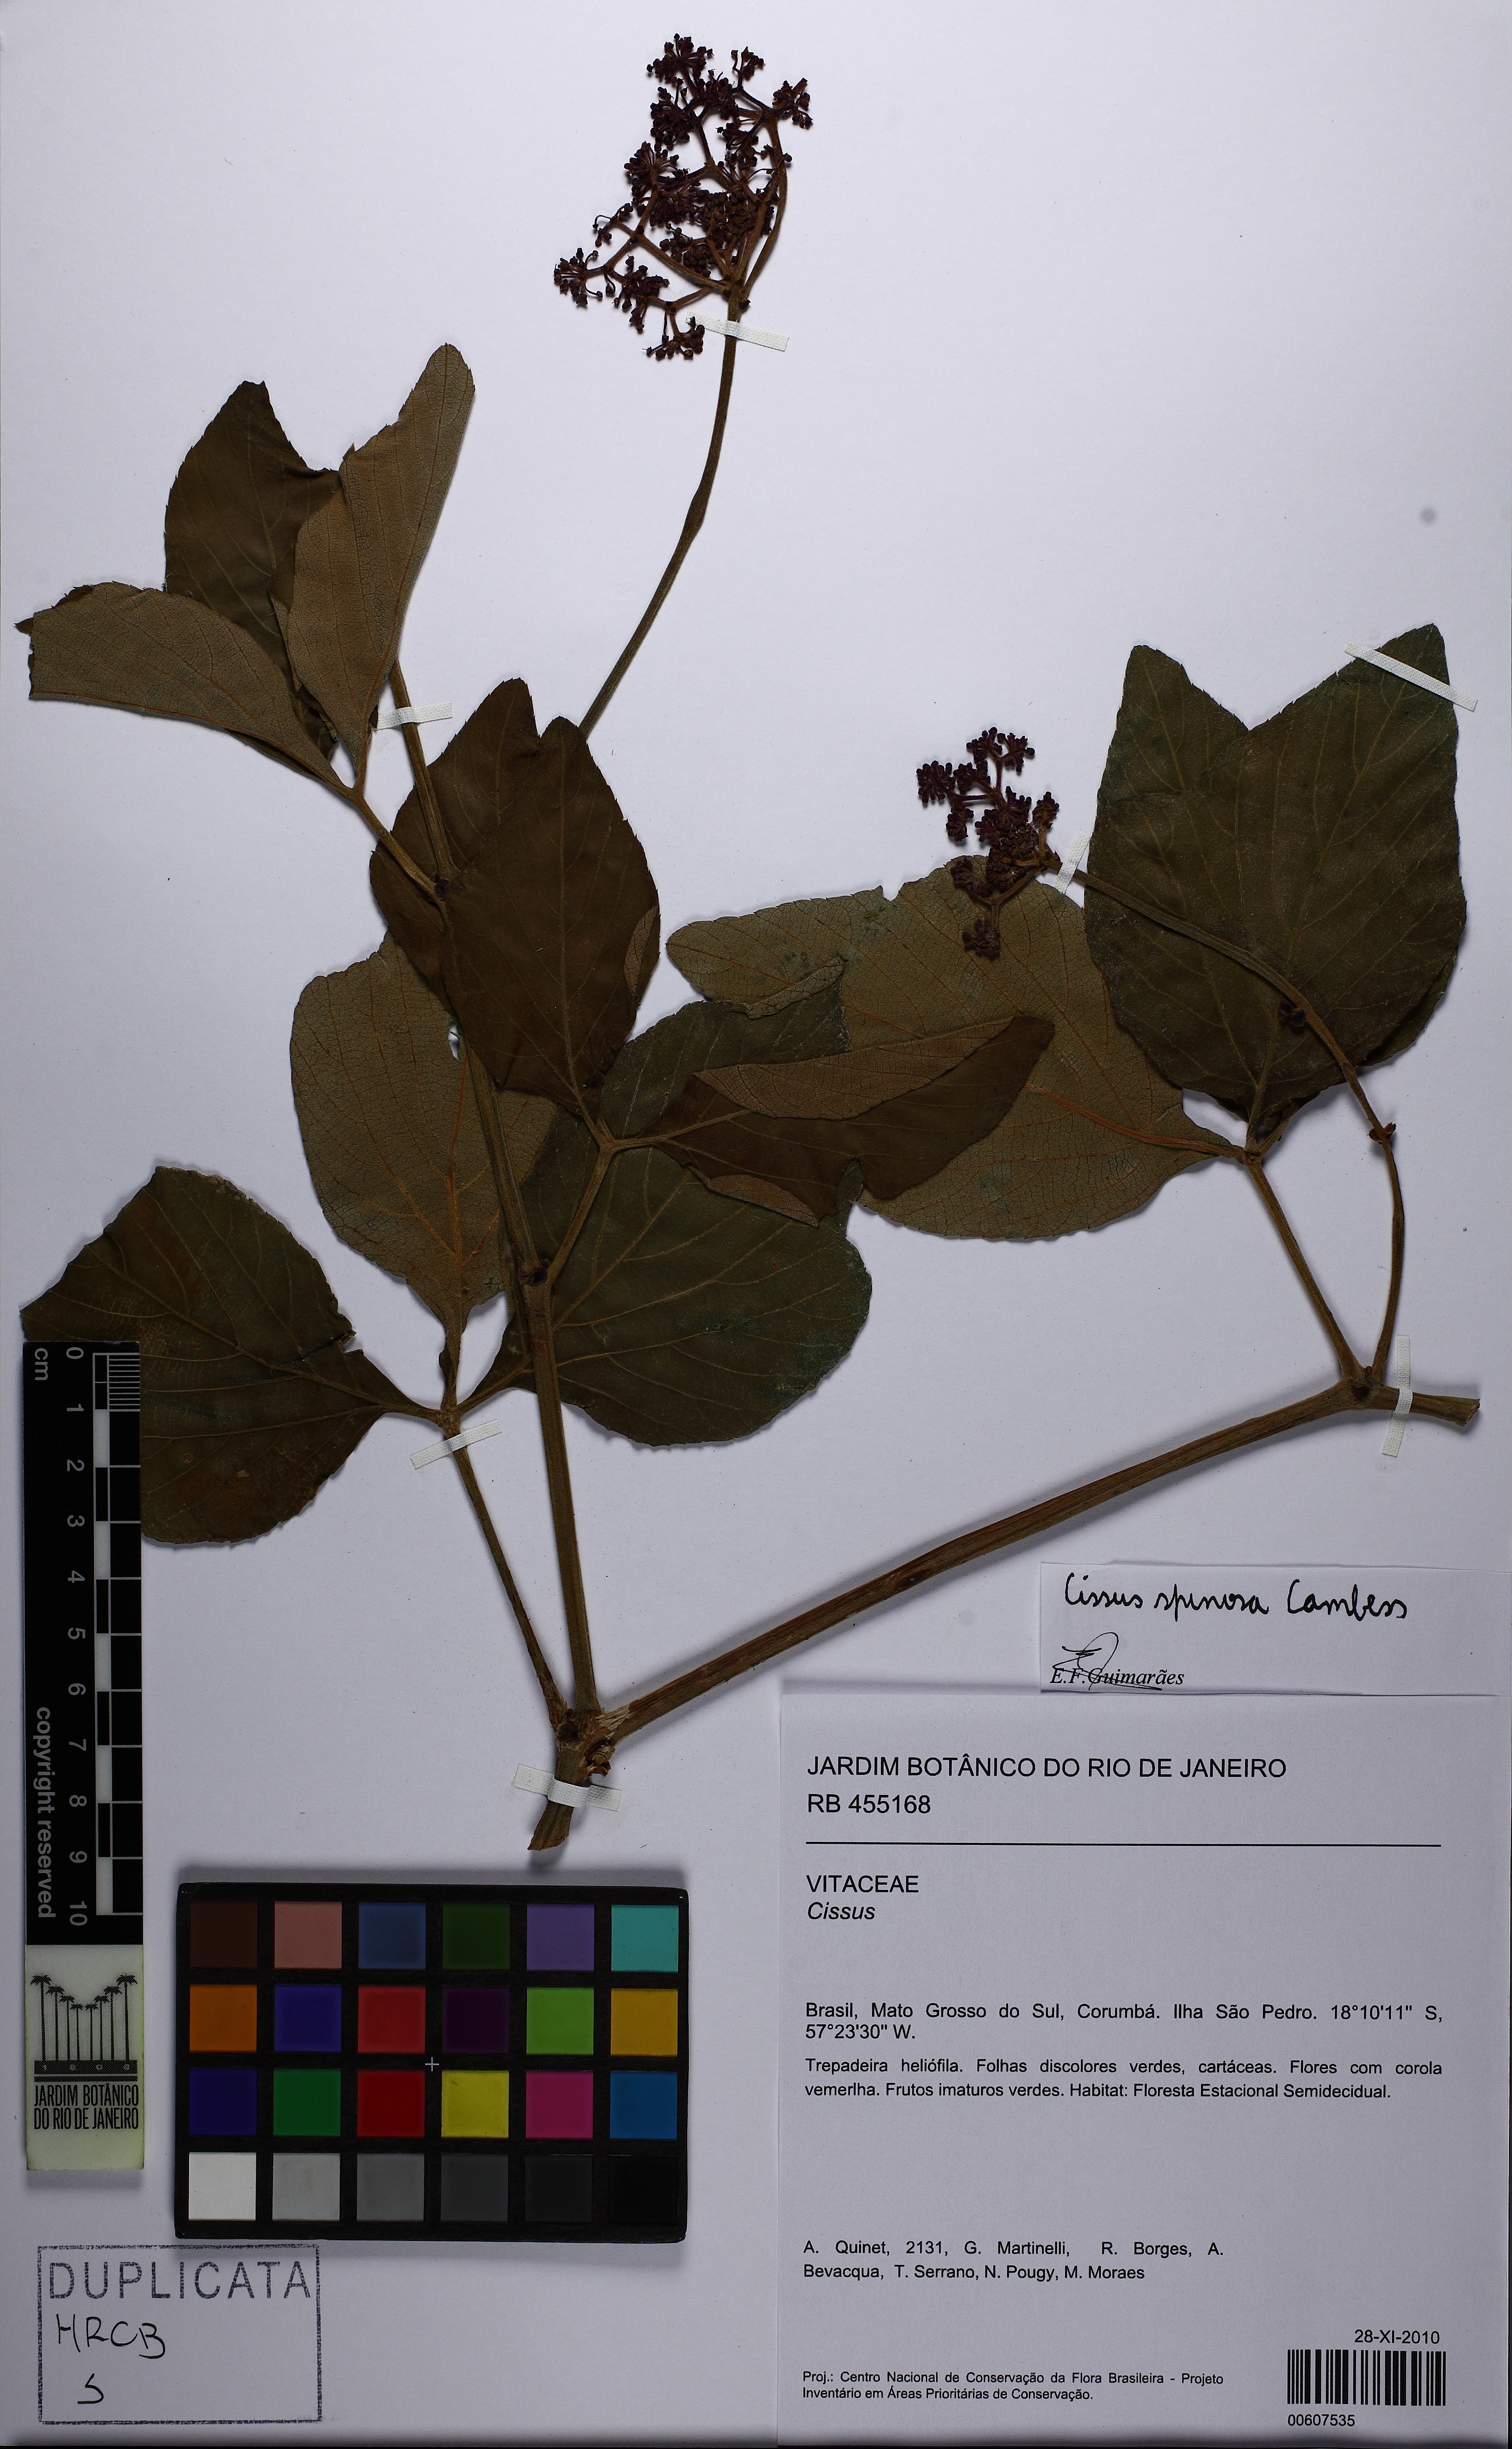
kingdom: Plantae
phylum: Tracheophyta
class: Magnoliopsida
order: Vitales
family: Vitaceae
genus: Cissus
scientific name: Cissus spinosa
